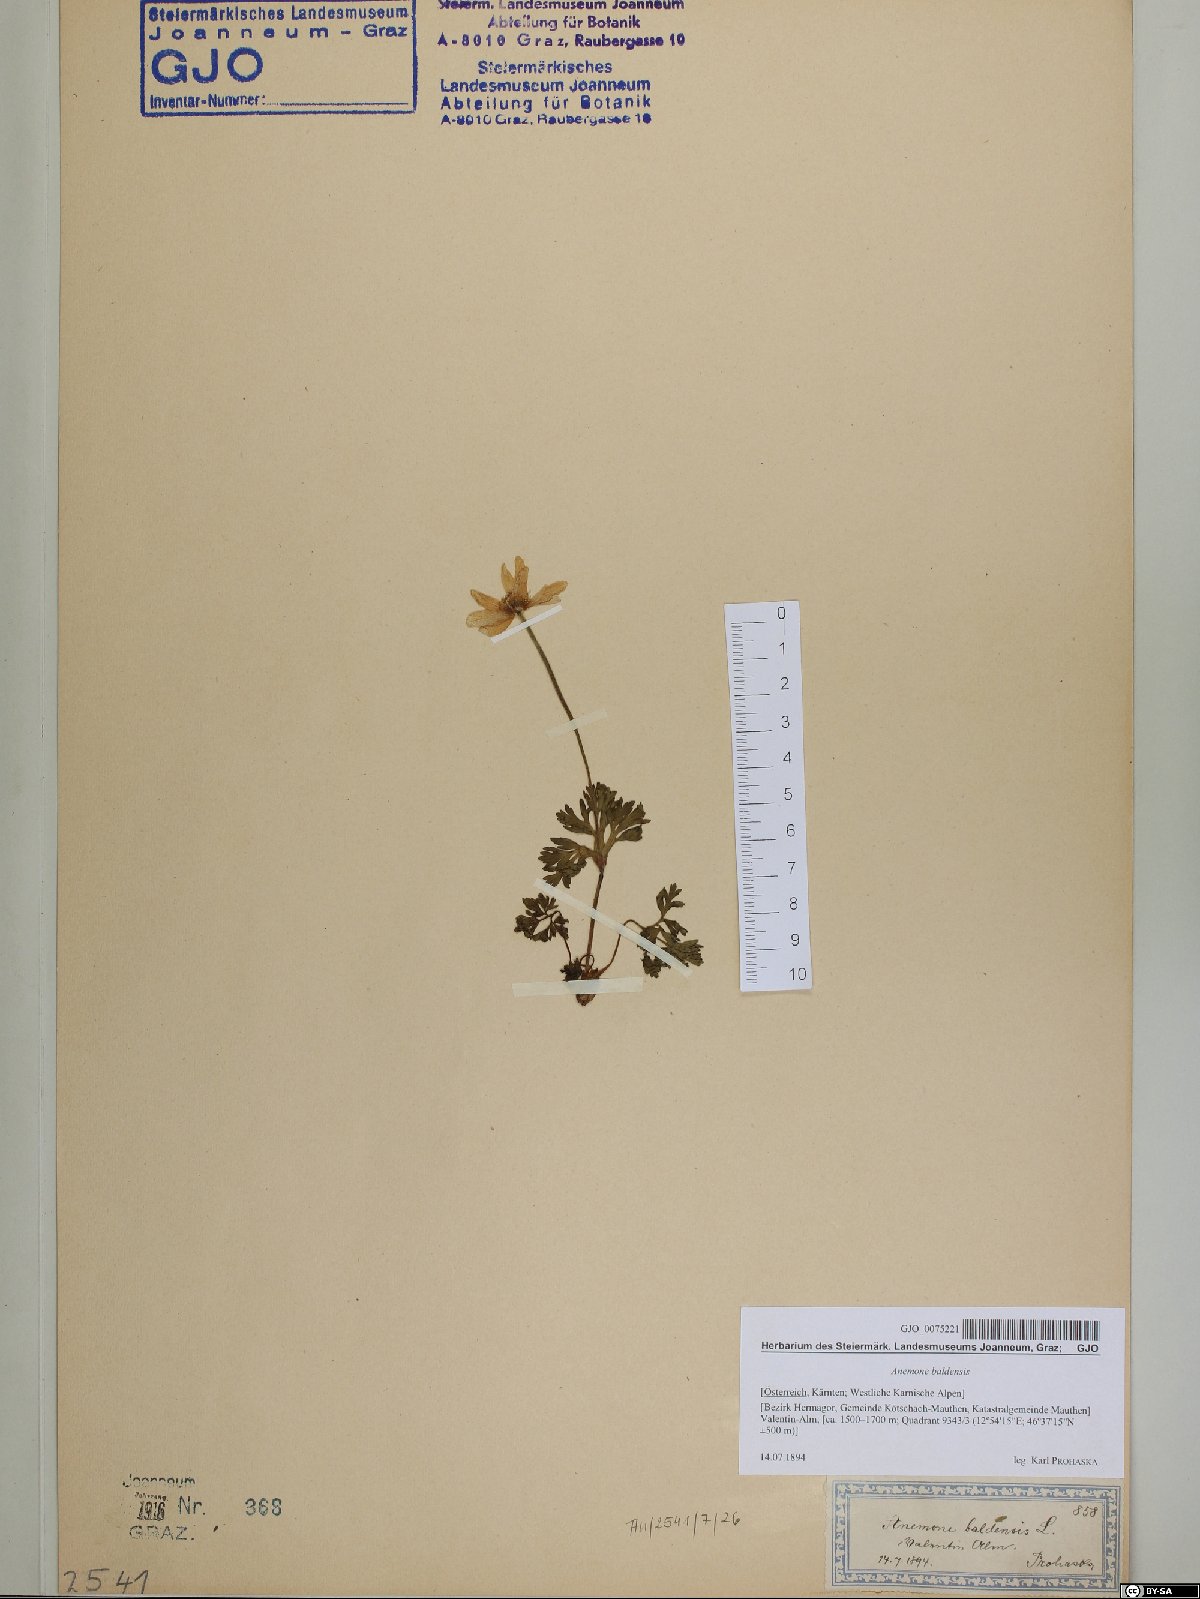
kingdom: Plantae
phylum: Tracheophyta
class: Magnoliopsida
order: Ranunculales
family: Ranunculaceae
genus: Anemone
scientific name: Anemone baldensis
